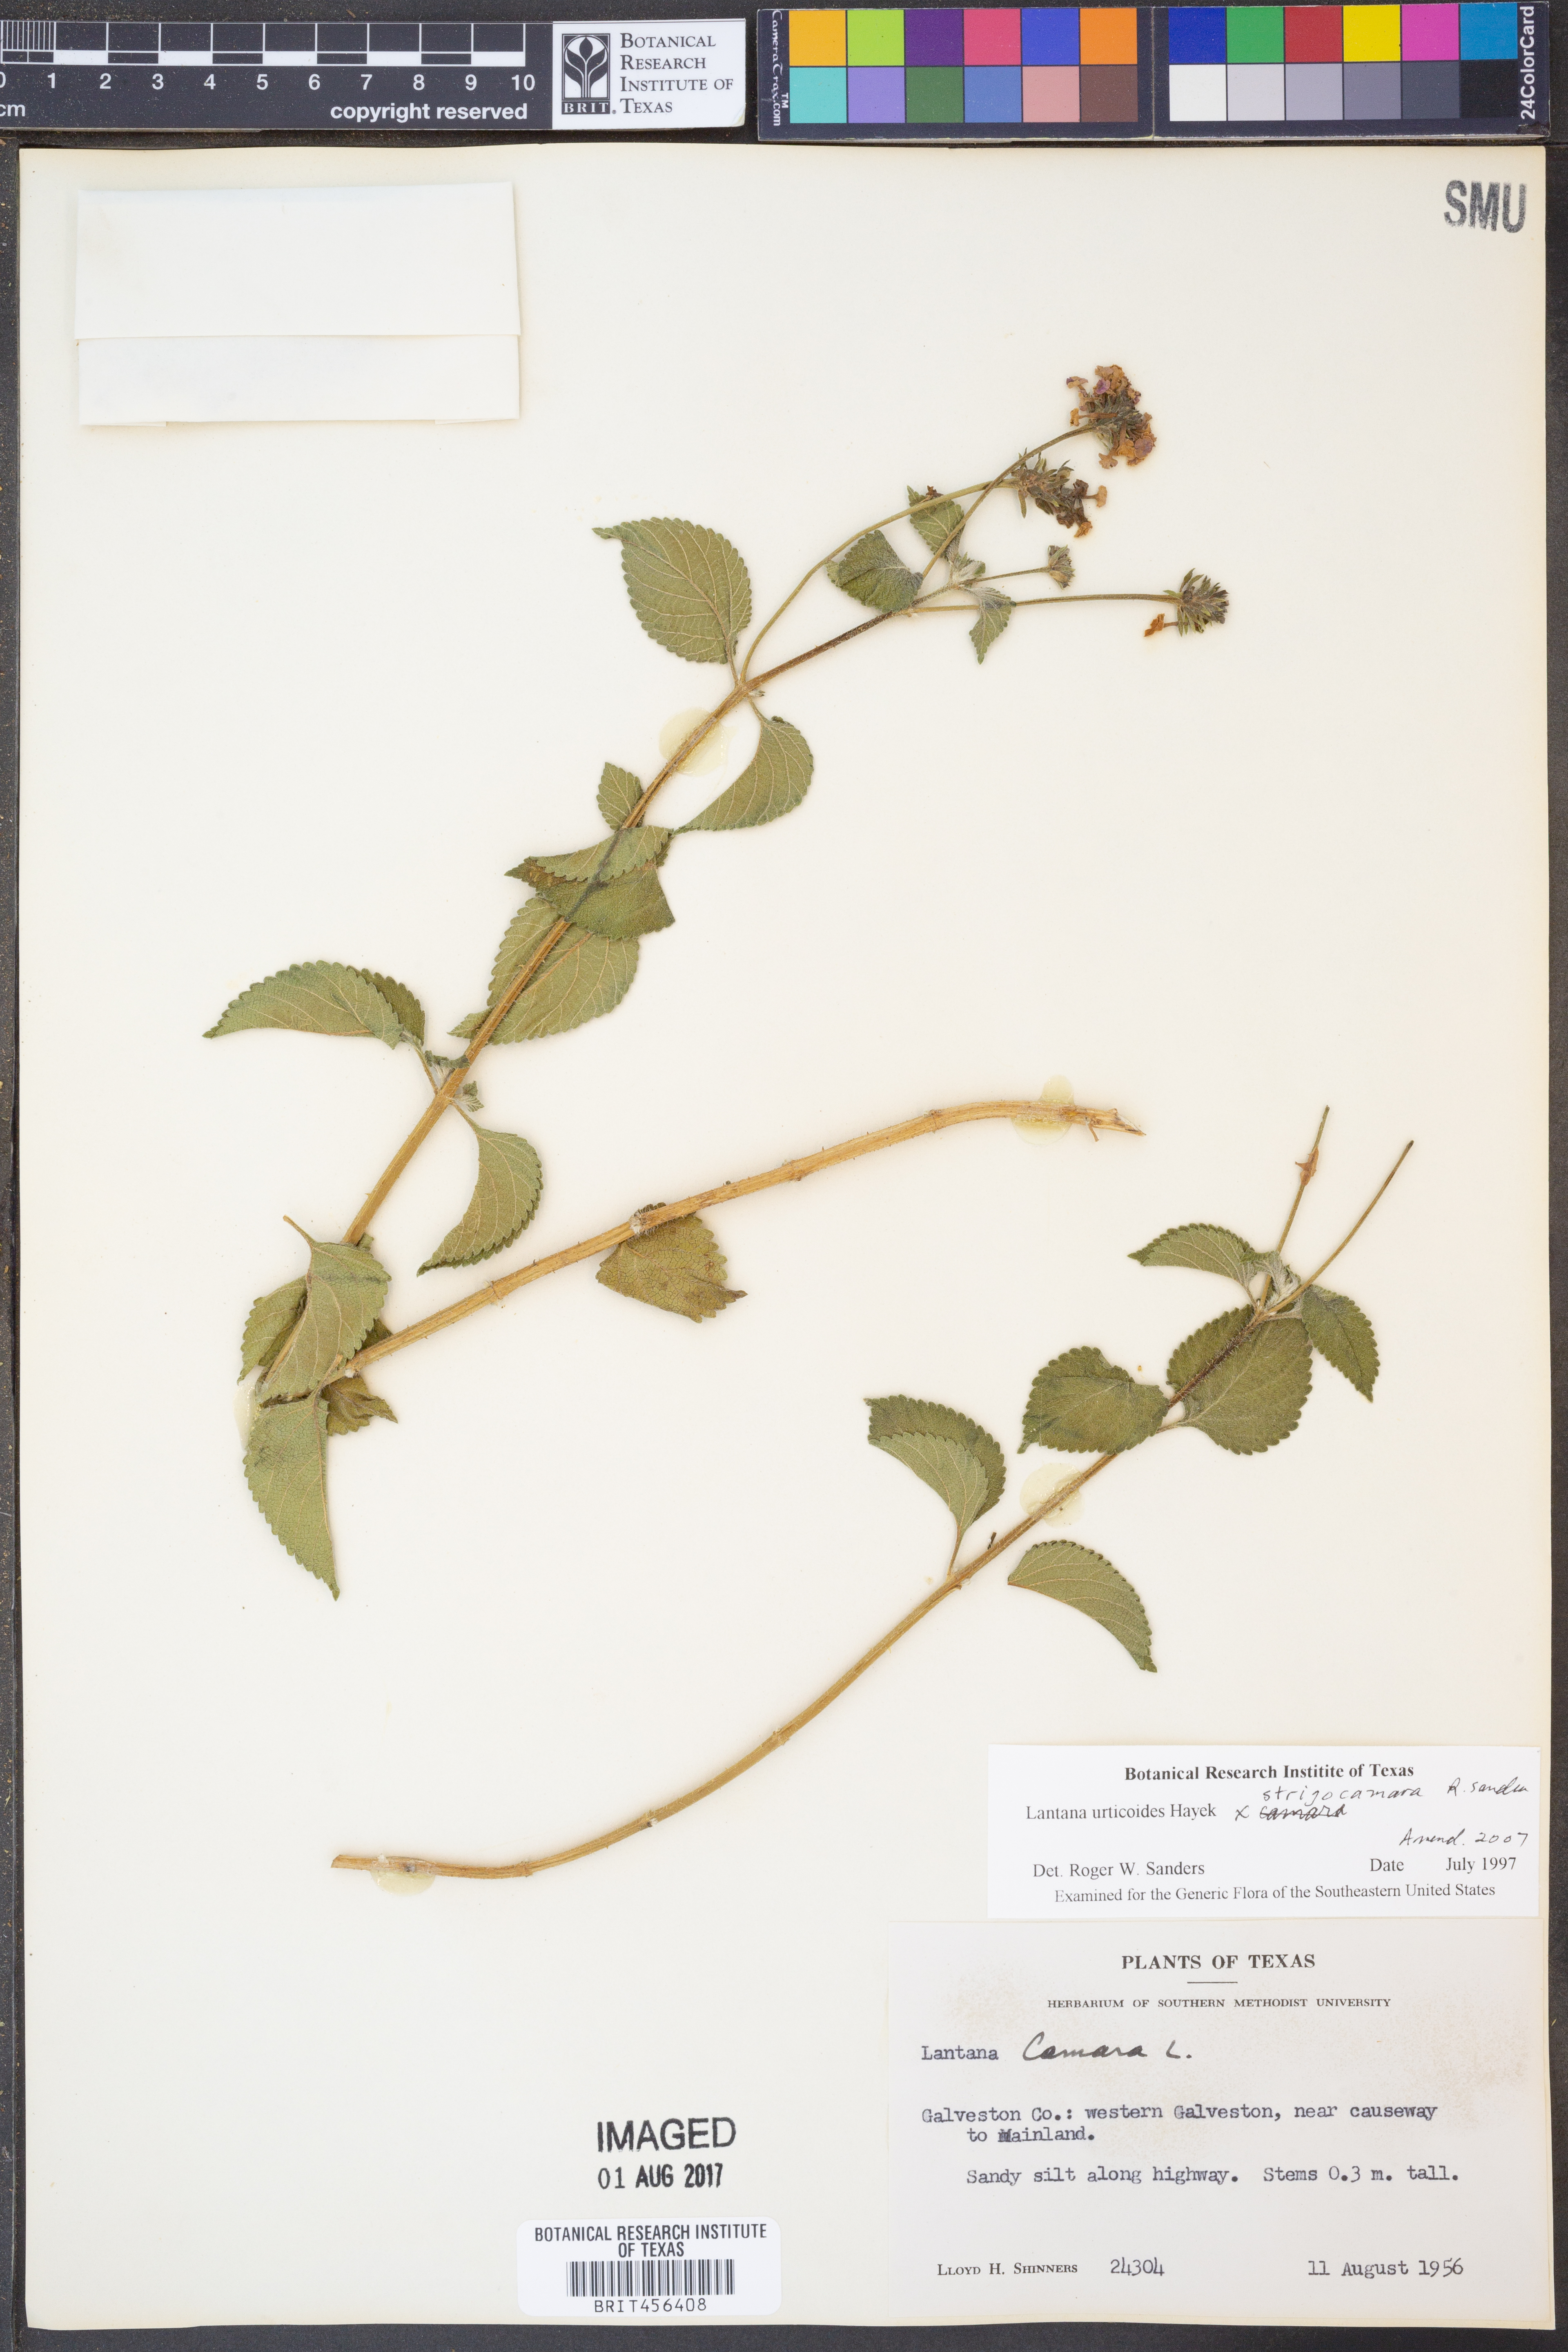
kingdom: Plantae
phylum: Tracheophyta
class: Magnoliopsida
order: Lamiales
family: Verbenaceae
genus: Lantana
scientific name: Lantana urticoides
